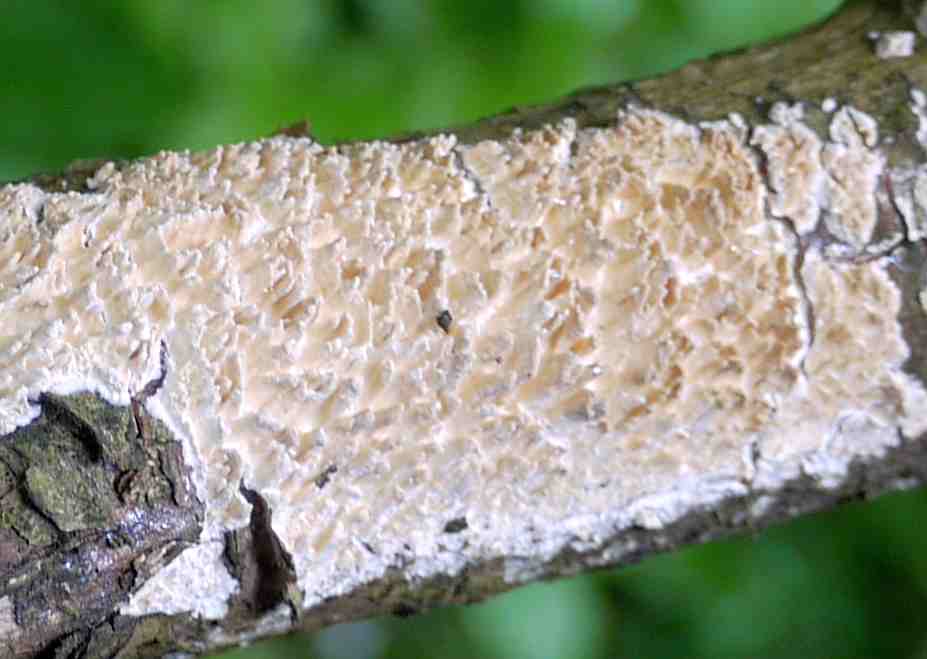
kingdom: Fungi
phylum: Basidiomycota
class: Agaricomycetes
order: Hymenochaetales
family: Schizoporaceae
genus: Xylodon
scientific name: Xylodon radula
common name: grovtandet kalkskind
